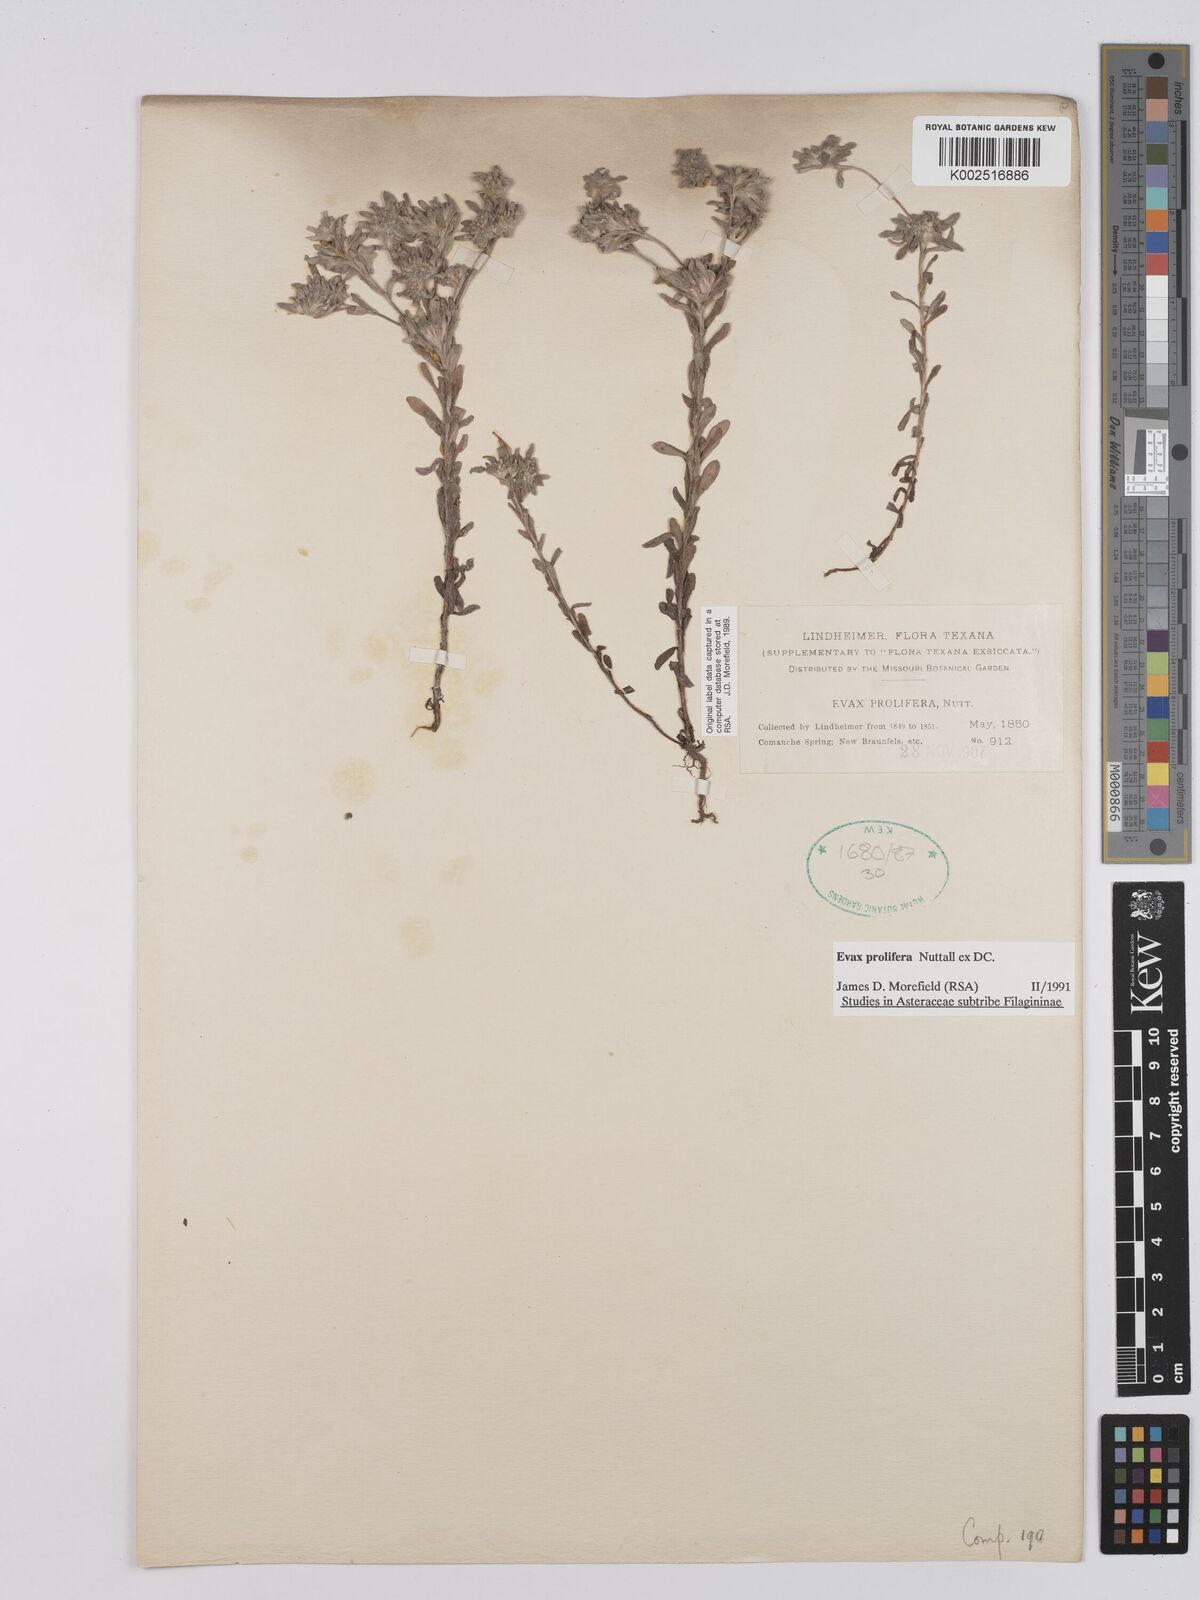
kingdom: Plantae
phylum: Tracheophyta
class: Magnoliopsida
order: Asterales
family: Asteraceae
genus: Diaperia
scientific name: Diaperia prolifera
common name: Big-head rabbit-tobacco
